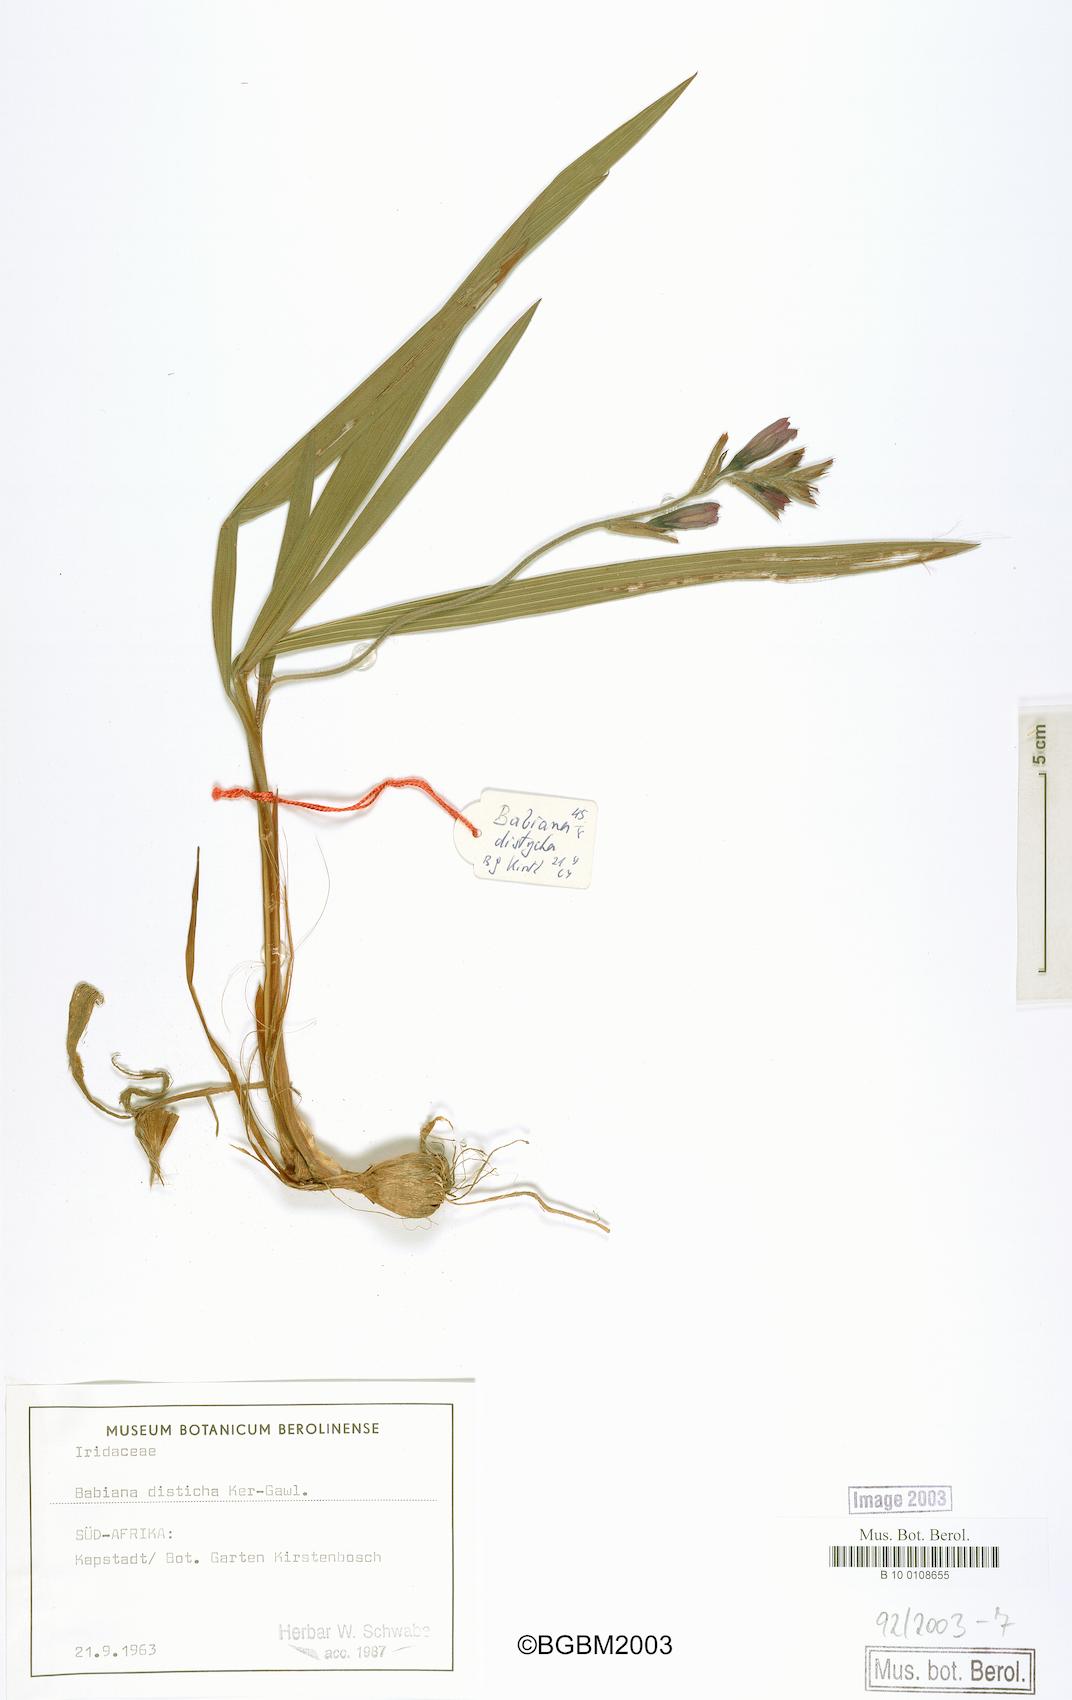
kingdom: Plantae
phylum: Tracheophyta
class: Liliopsida
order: Asparagales
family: Iridaceae
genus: Babiana
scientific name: Babiana fragrans
